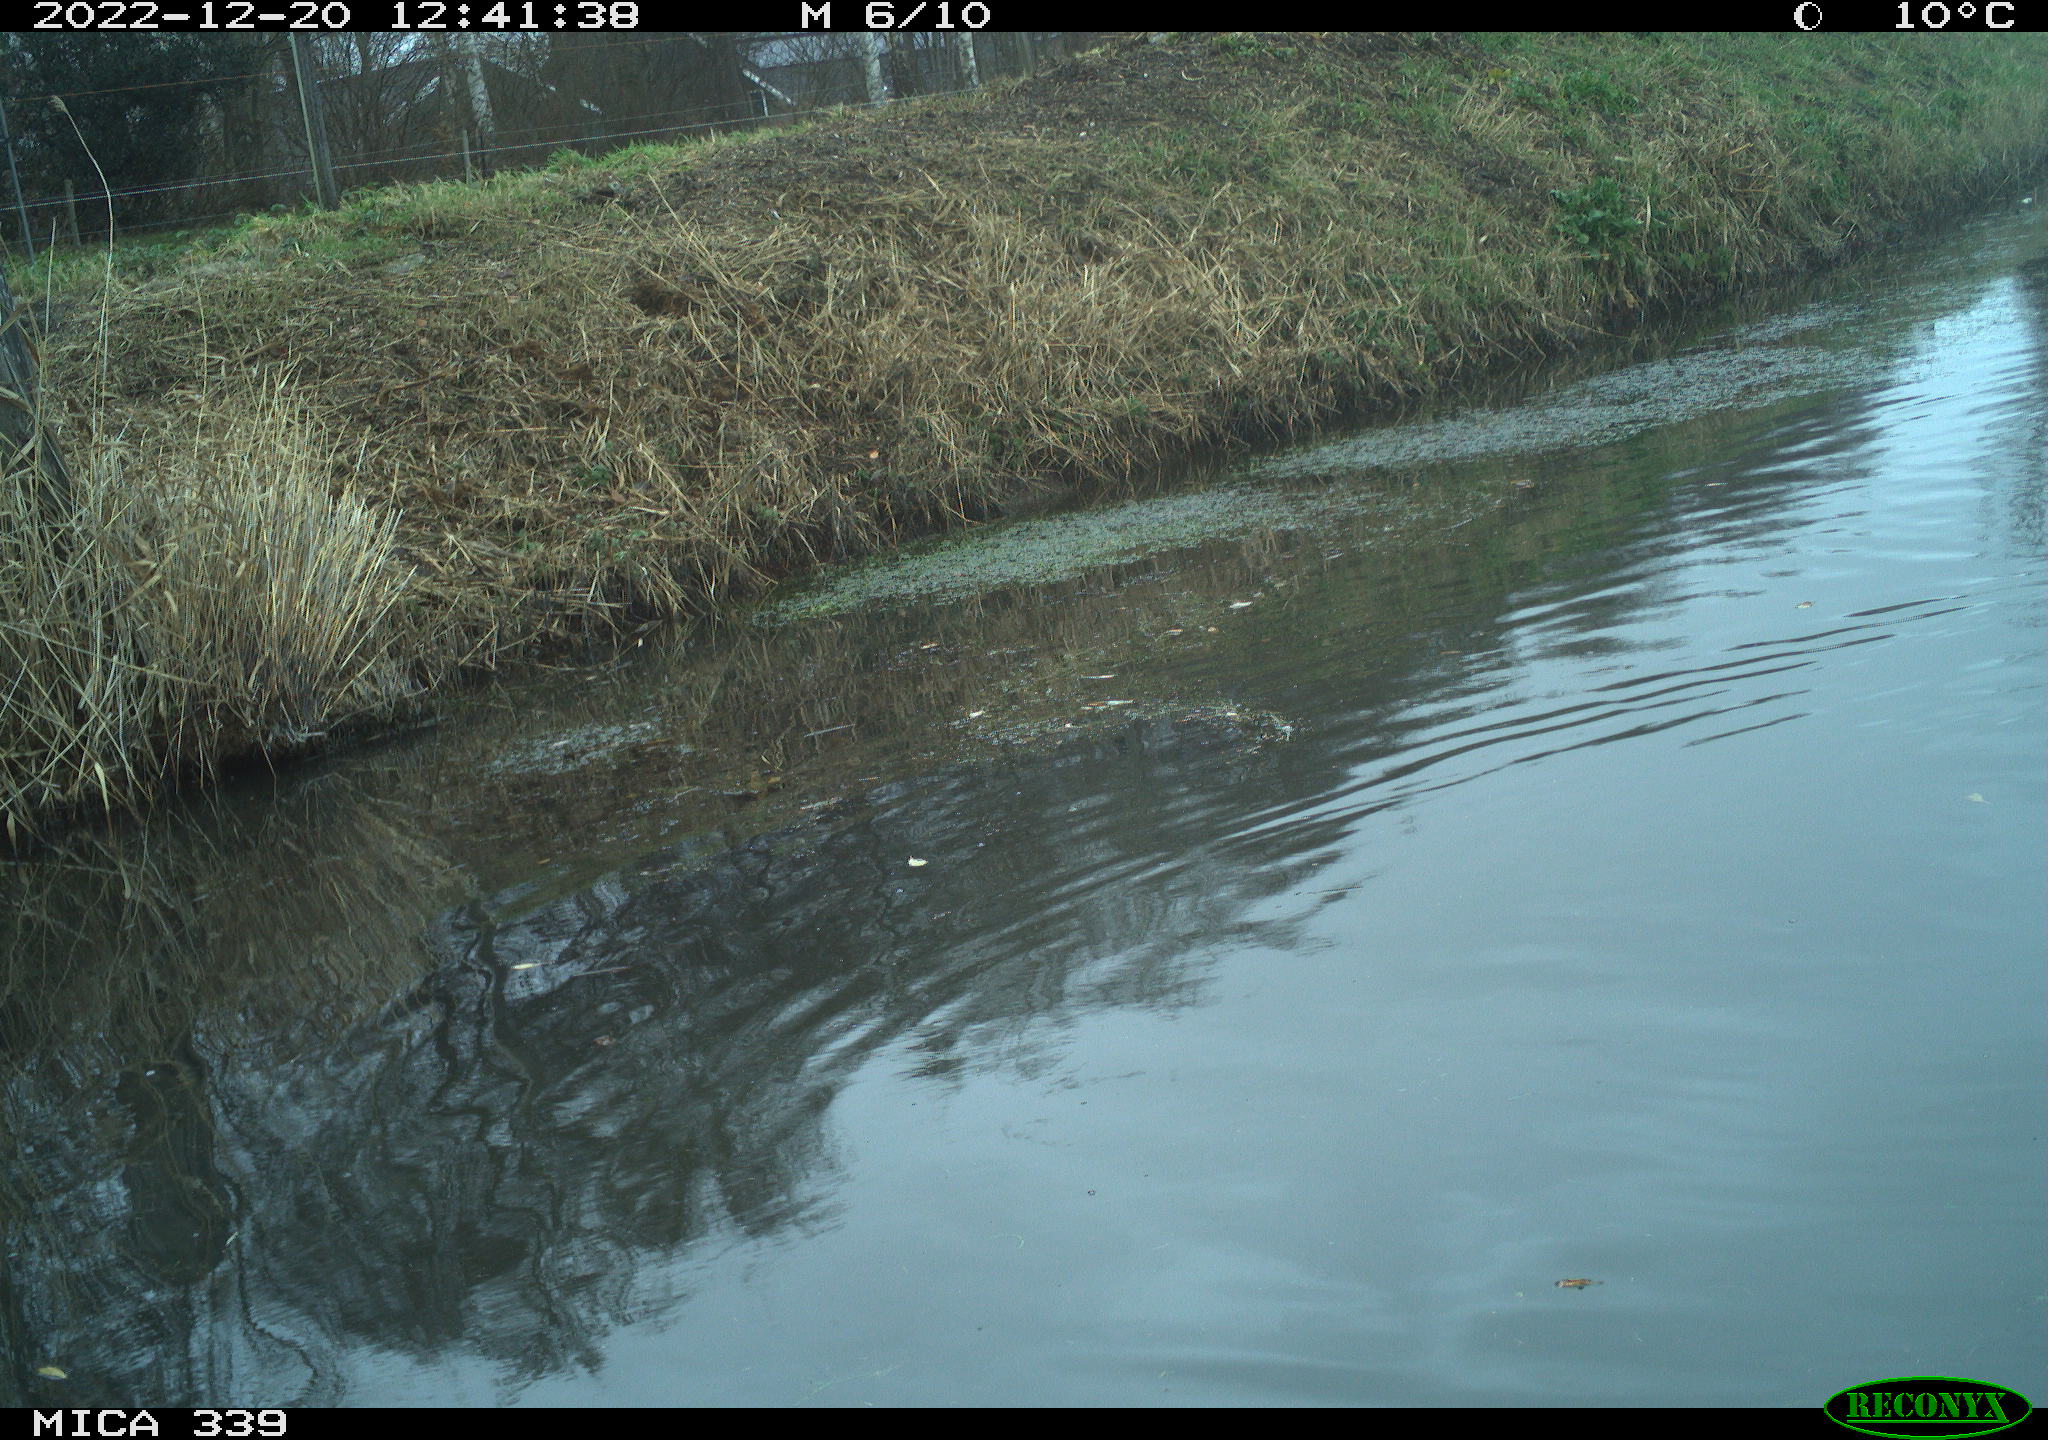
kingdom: Animalia
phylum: Chordata
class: Aves
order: Anseriformes
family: Anatidae
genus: Anas
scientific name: Anas
